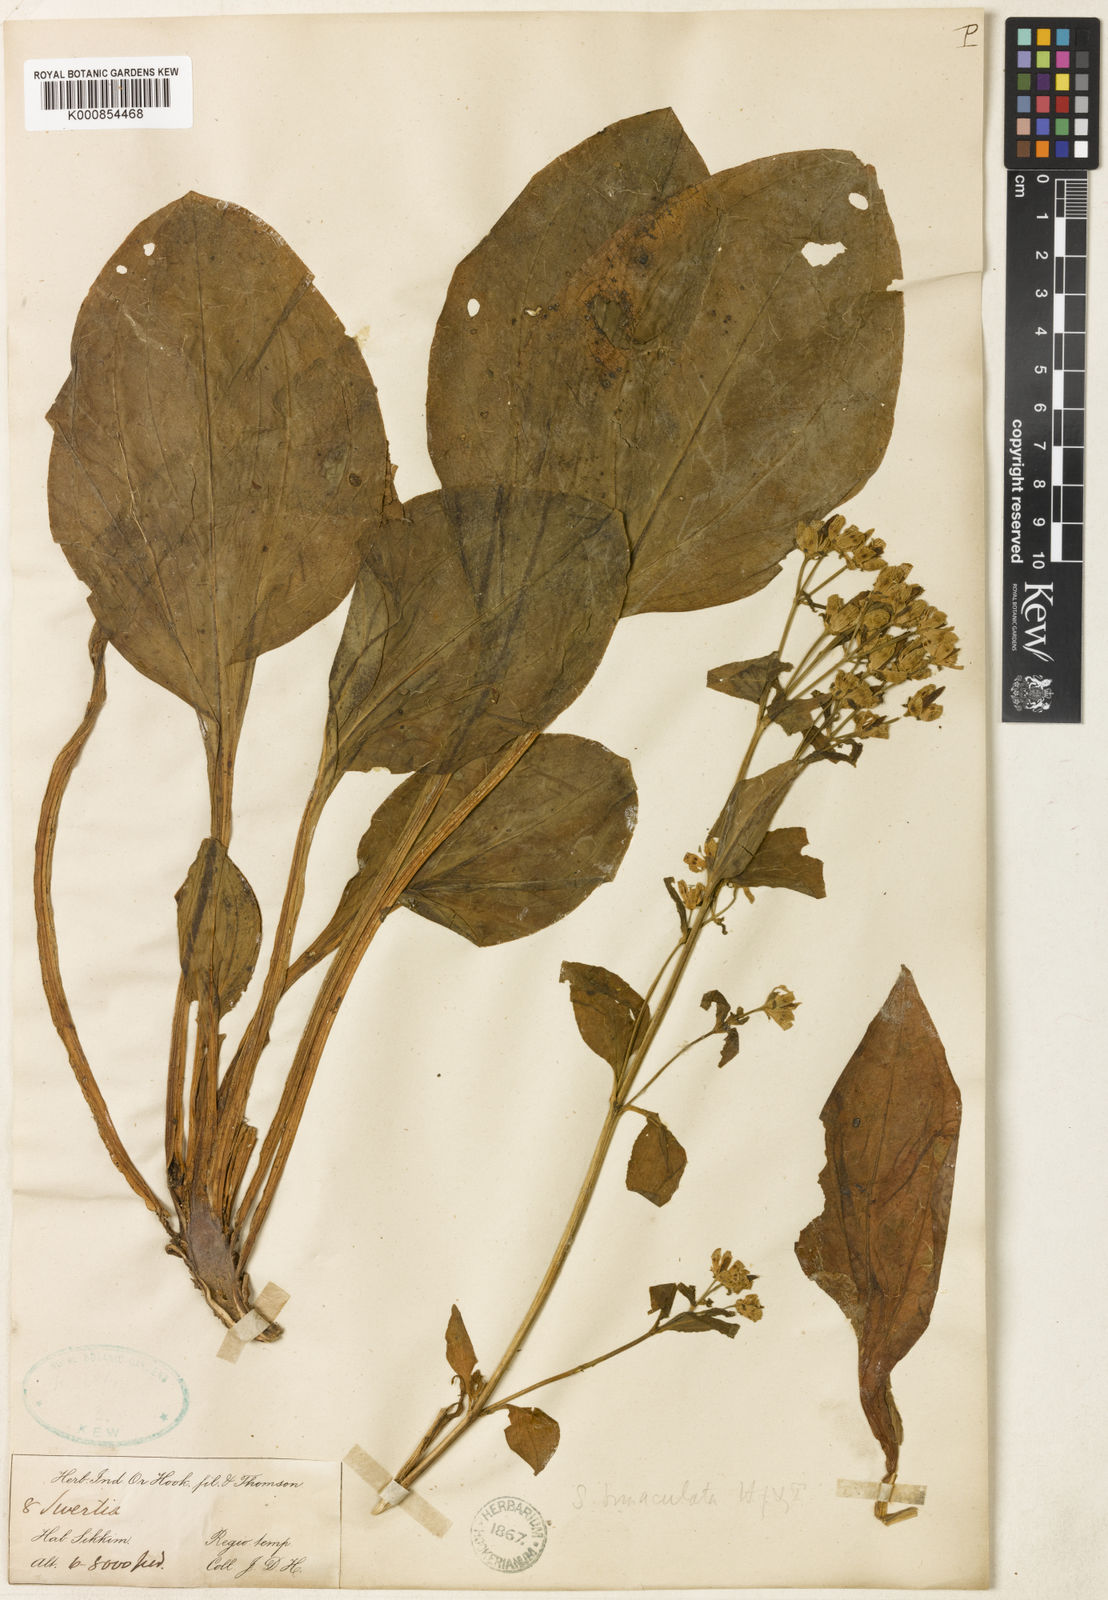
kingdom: Plantae
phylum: Tracheophyta
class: Magnoliopsida
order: Gentianales
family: Gentianaceae
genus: Swertia
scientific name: Swertia bimaculata
